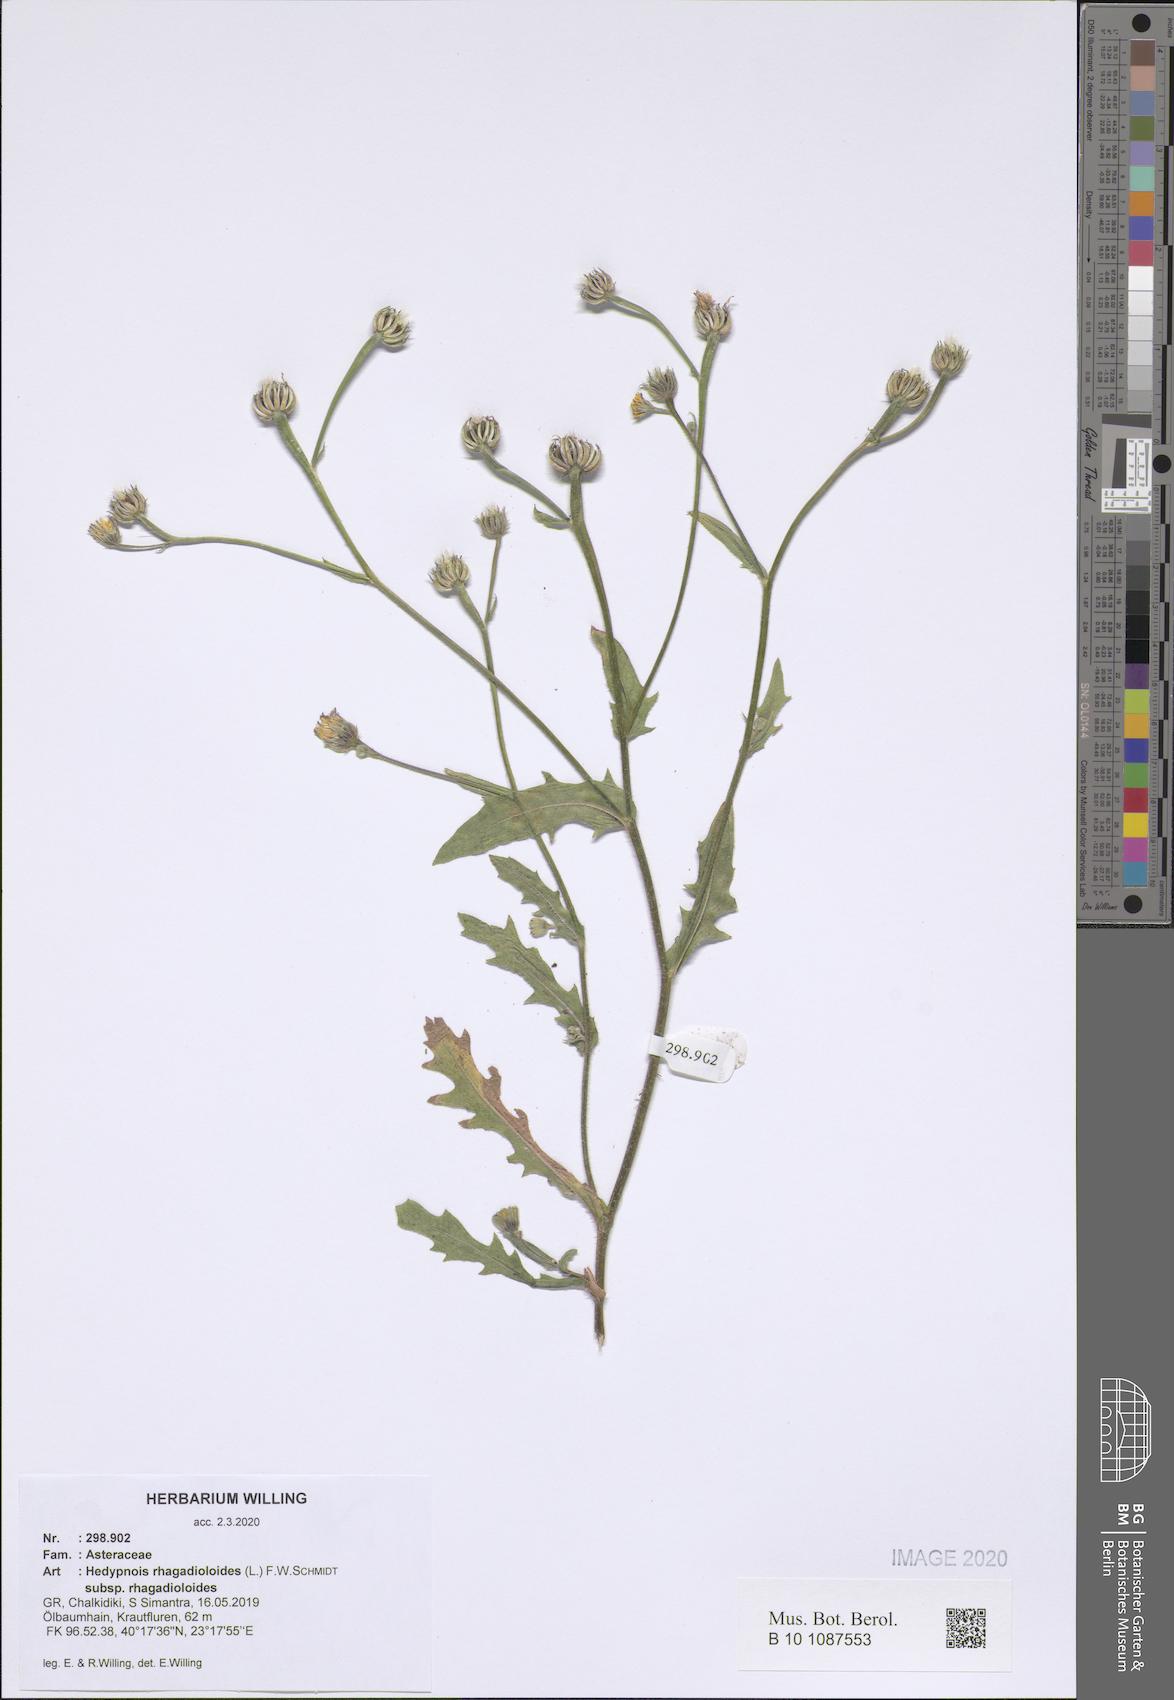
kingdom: Plantae
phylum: Tracheophyta
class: Magnoliopsida
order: Asterales
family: Asteraceae
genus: Hedypnois
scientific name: Hedypnois rhagadioloides
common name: Cretan weed
